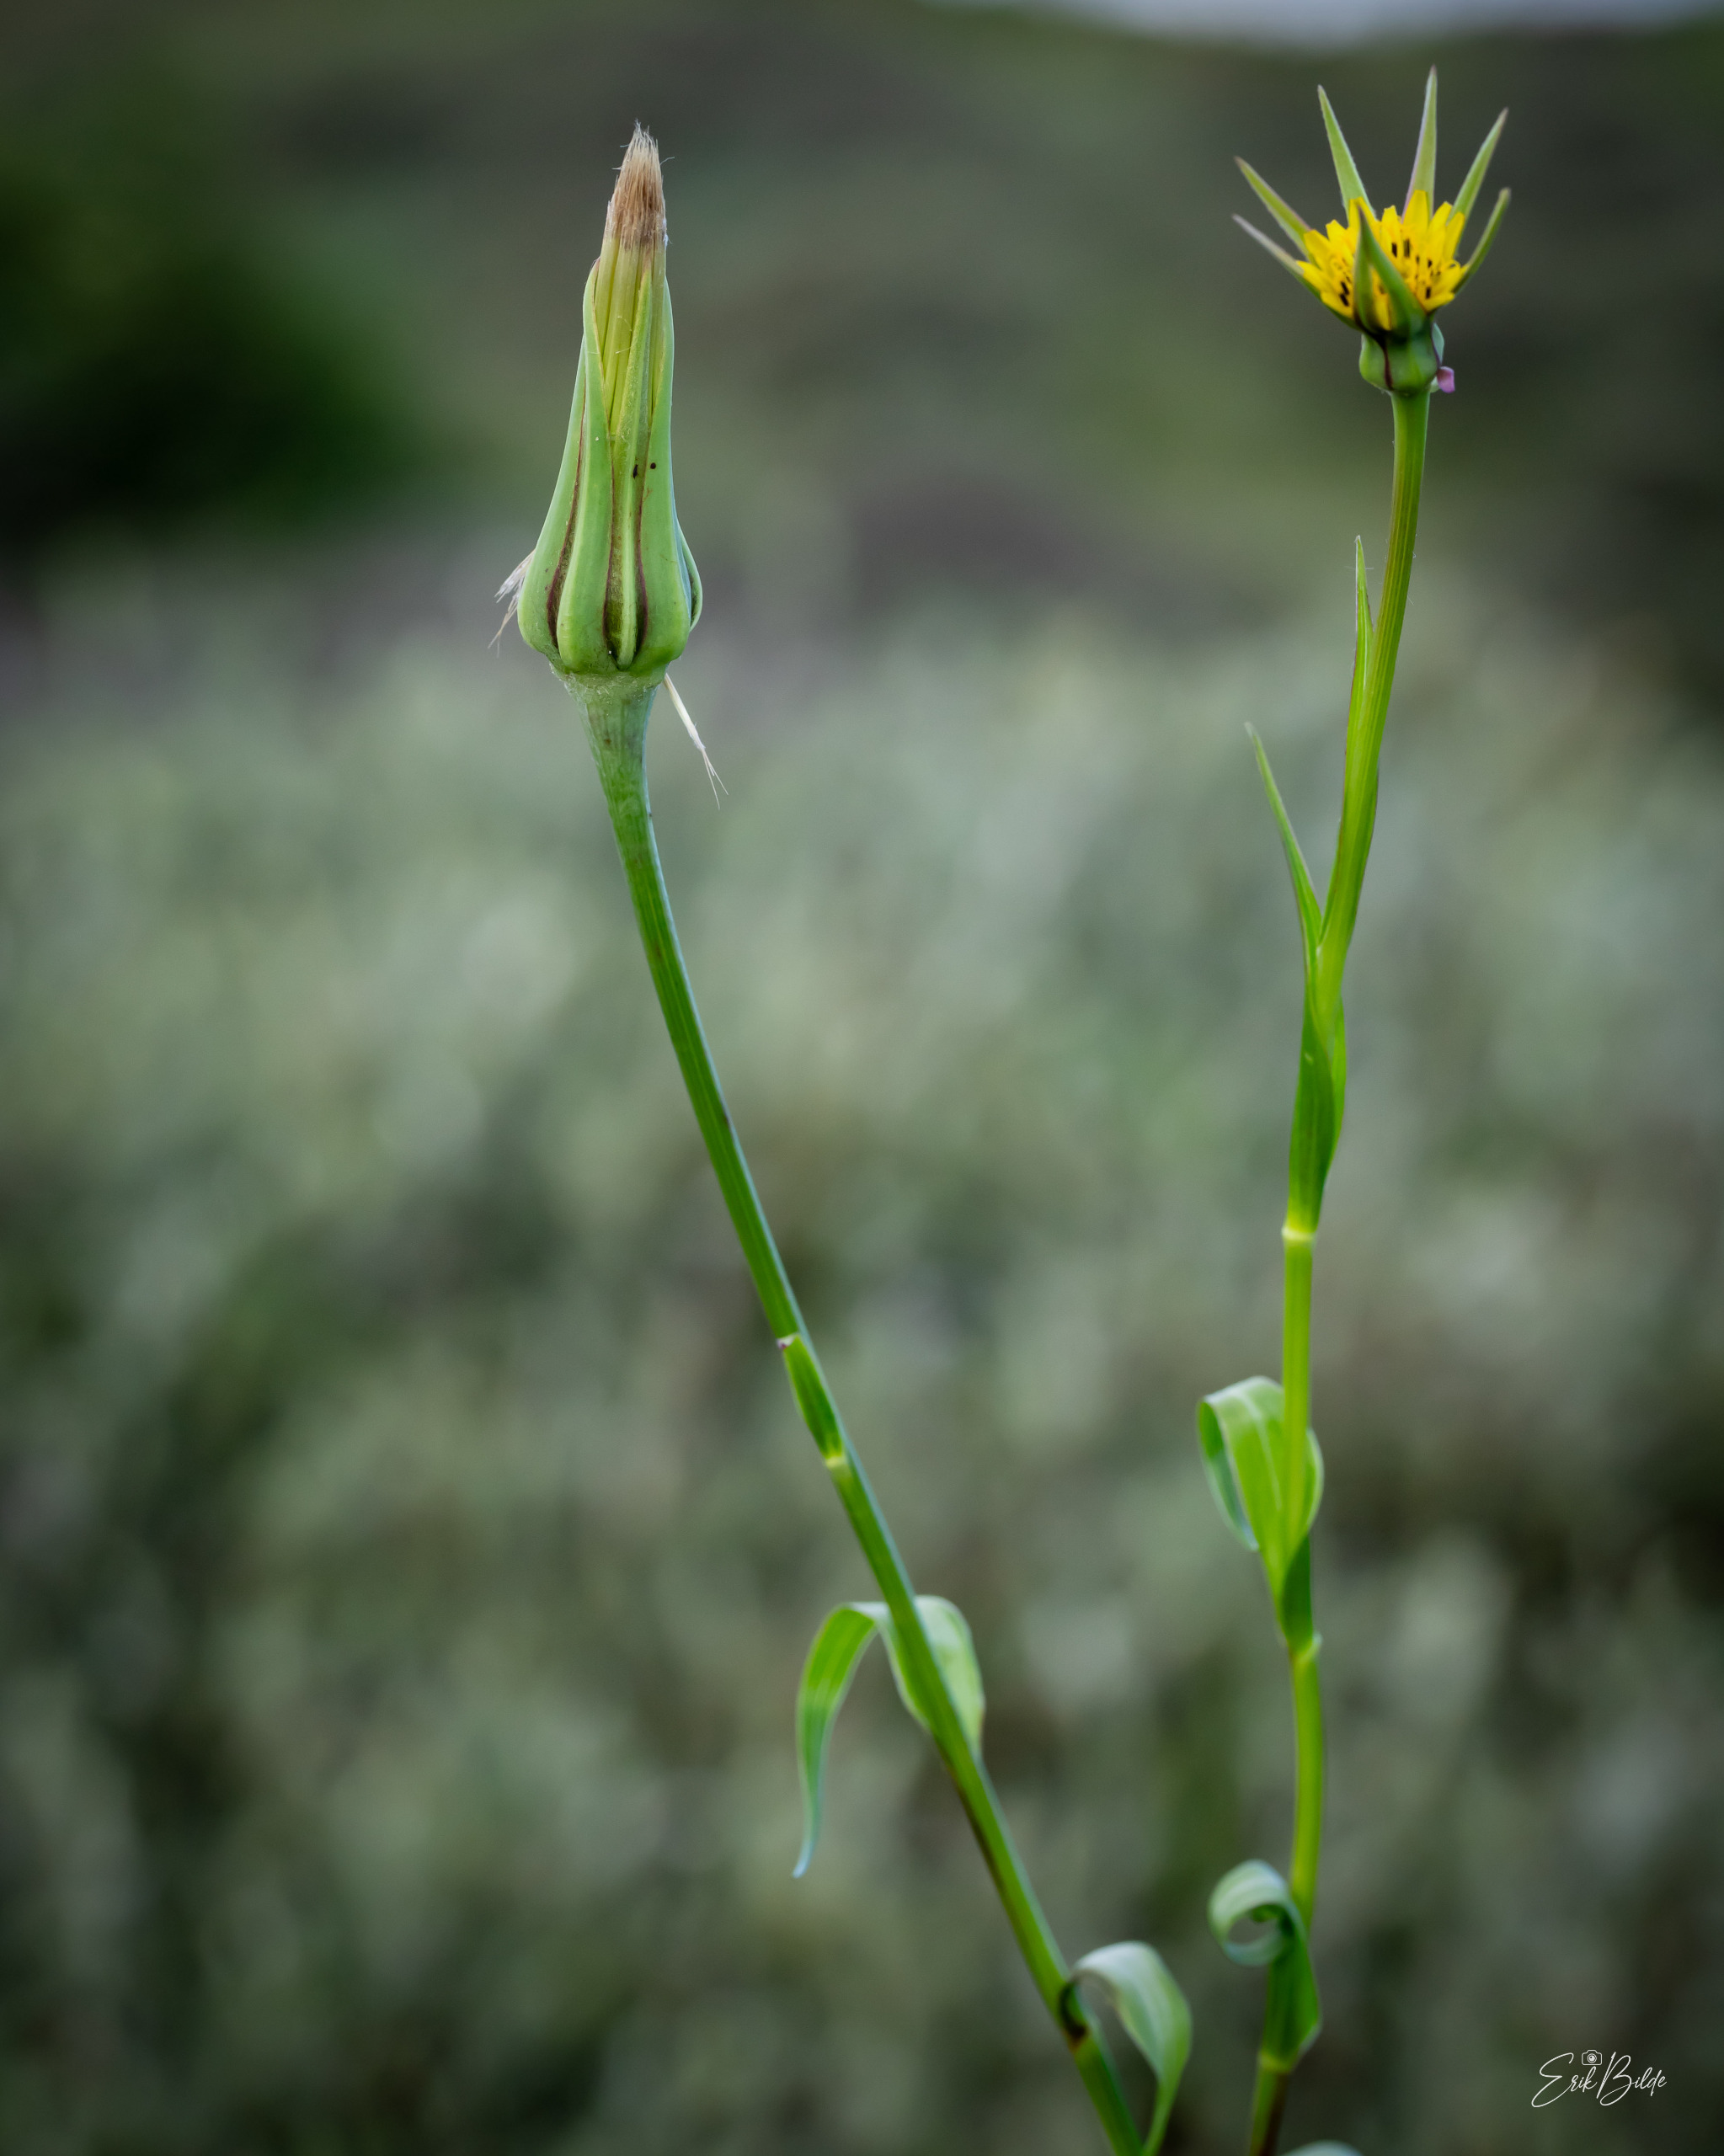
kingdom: Plantae
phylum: Tracheophyta
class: Magnoliopsida
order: Asterales
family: Asteraceae
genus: Tragopogon
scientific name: Tragopogon minor
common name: Småkronet gedeskæg
